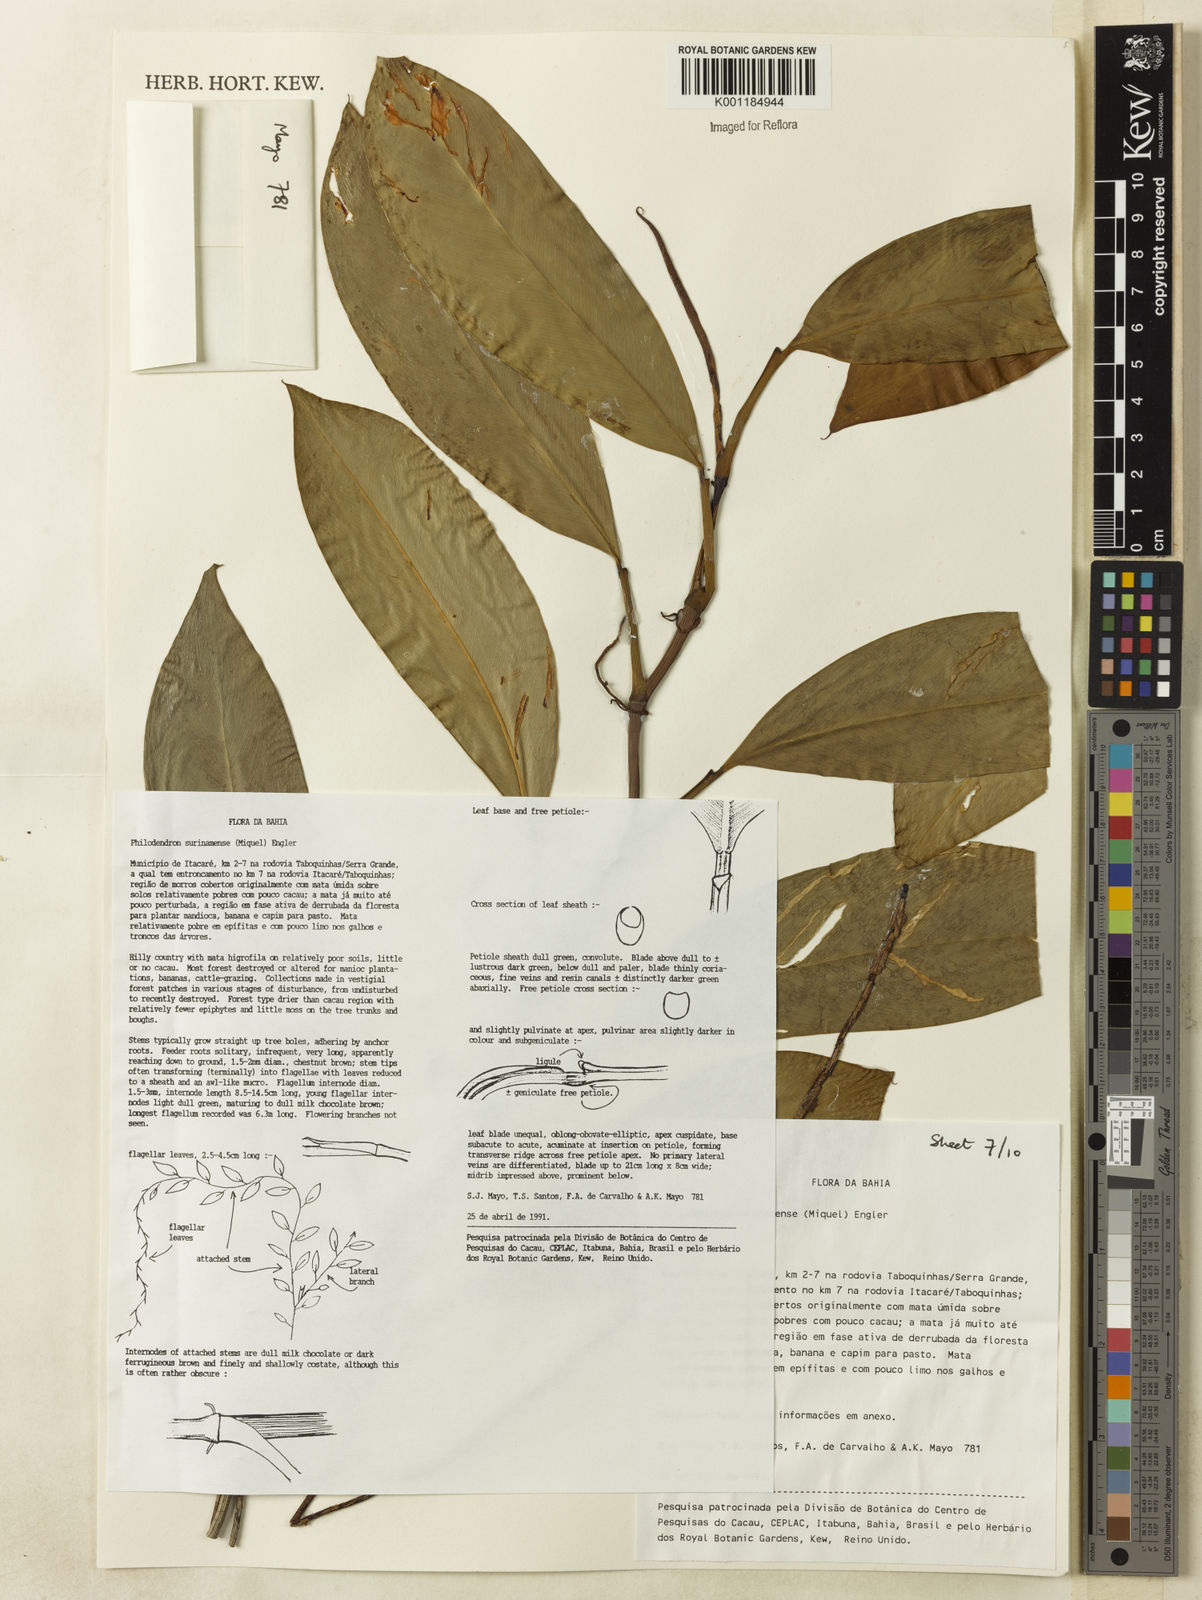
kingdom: Plantae
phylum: Tracheophyta
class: Liliopsida
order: Alismatales
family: Araceae
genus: Philodendron
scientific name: Philodendron surinamense
